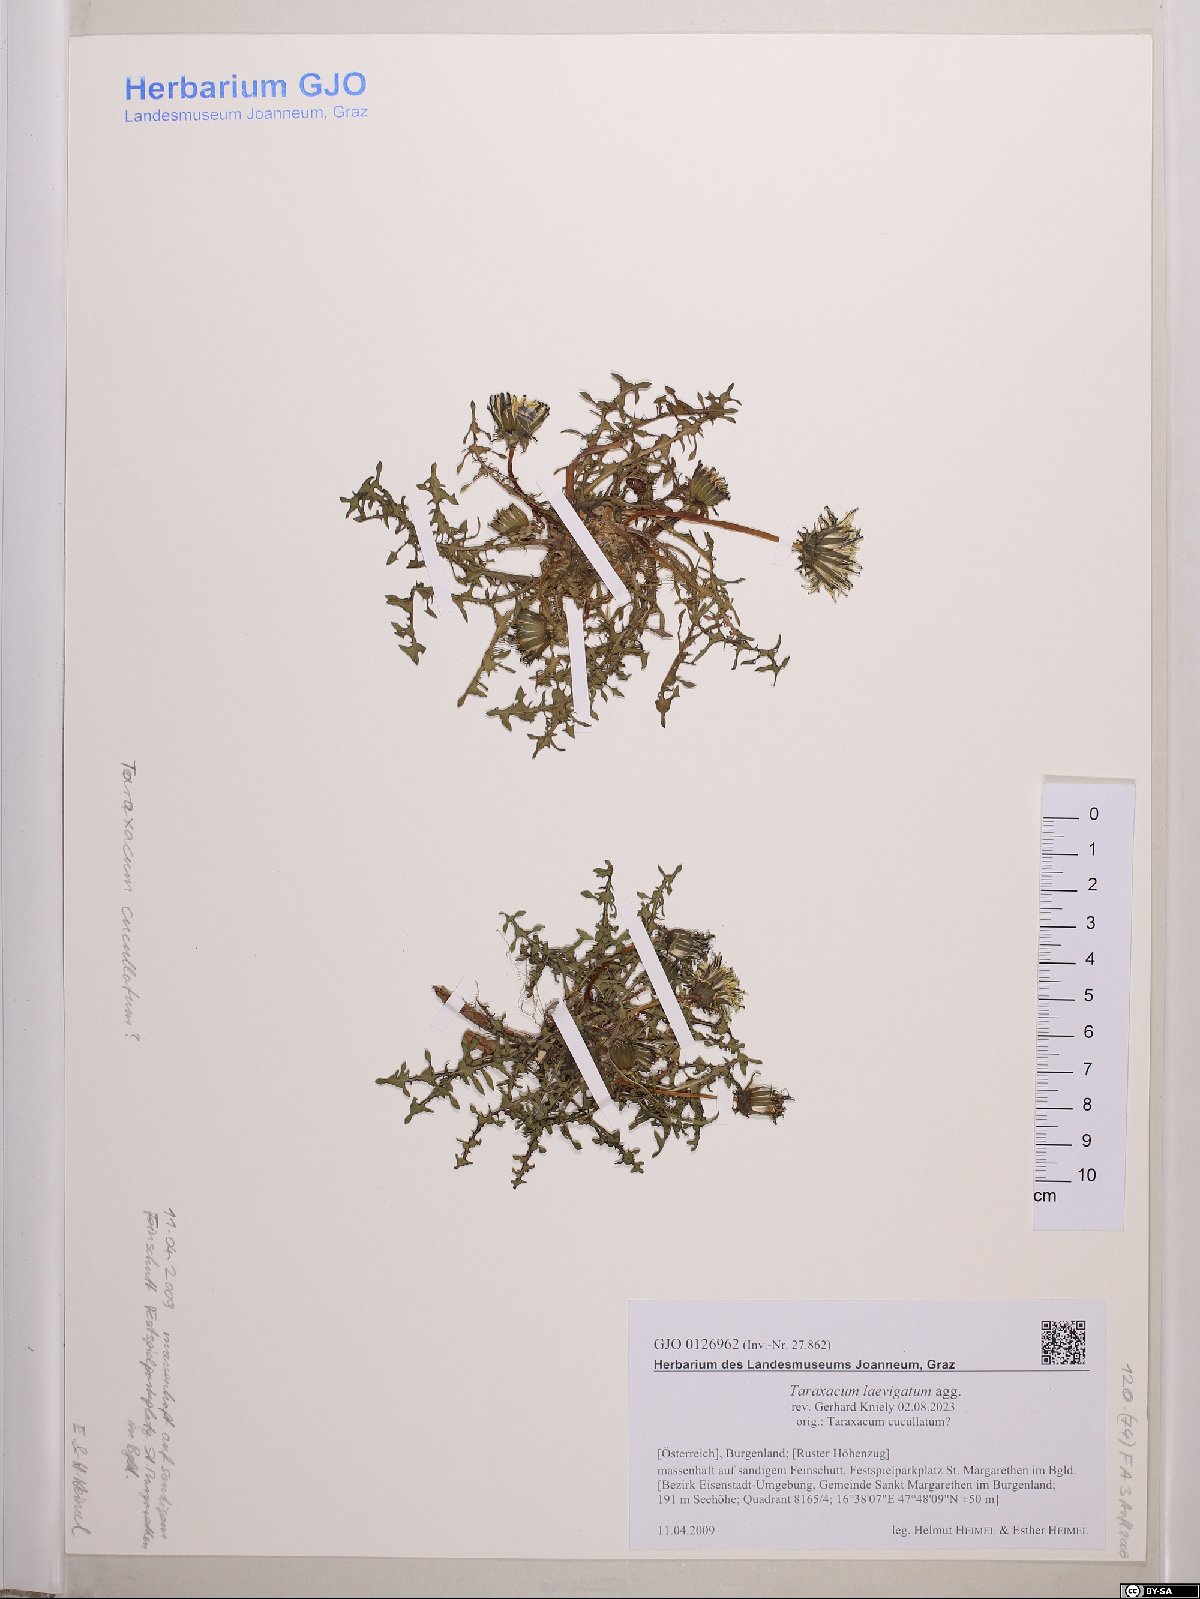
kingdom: Plantae
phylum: Tracheophyta
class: Magnoliopsida
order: Asterales
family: Asteraceae
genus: Taraxacum
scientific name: Taraxacum erythrospermum
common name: Rock dandelion
